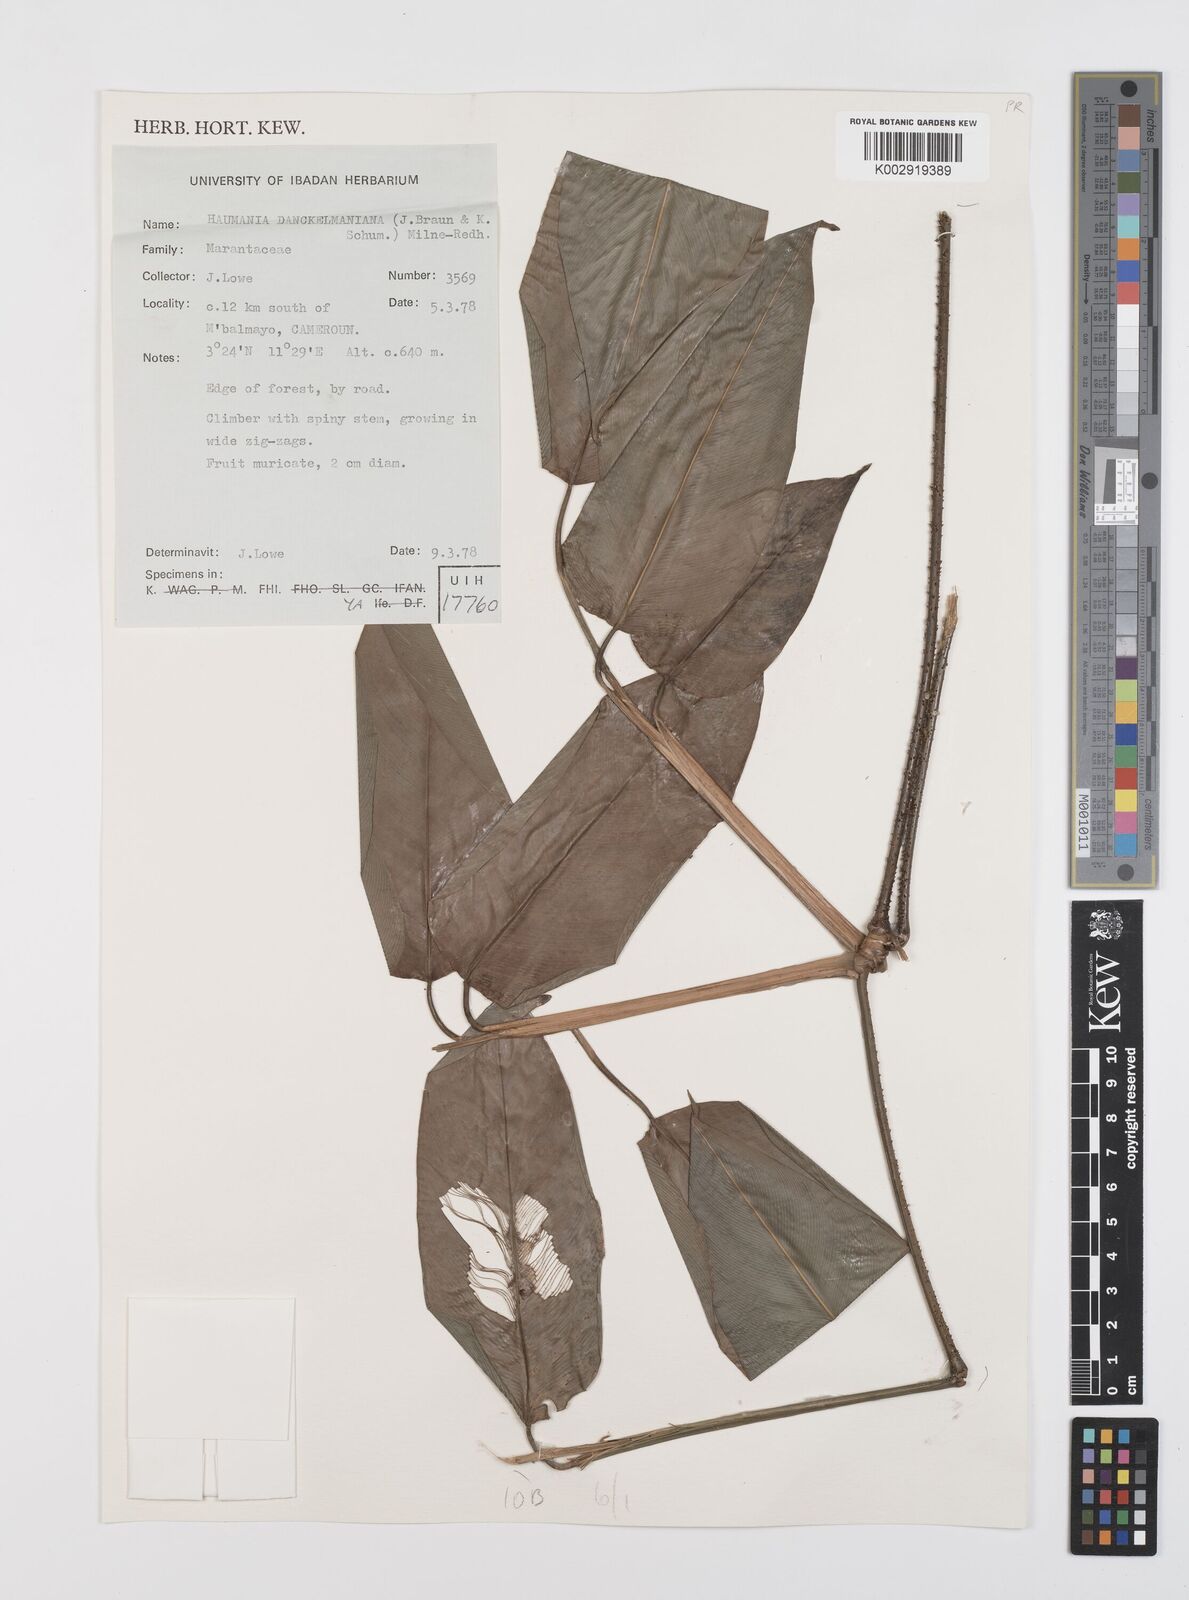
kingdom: Plantae
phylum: Tracheophyta
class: Liliopsida
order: Zingiberales
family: Marantaceae
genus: Haumania
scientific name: Haumania danckelmaniana
